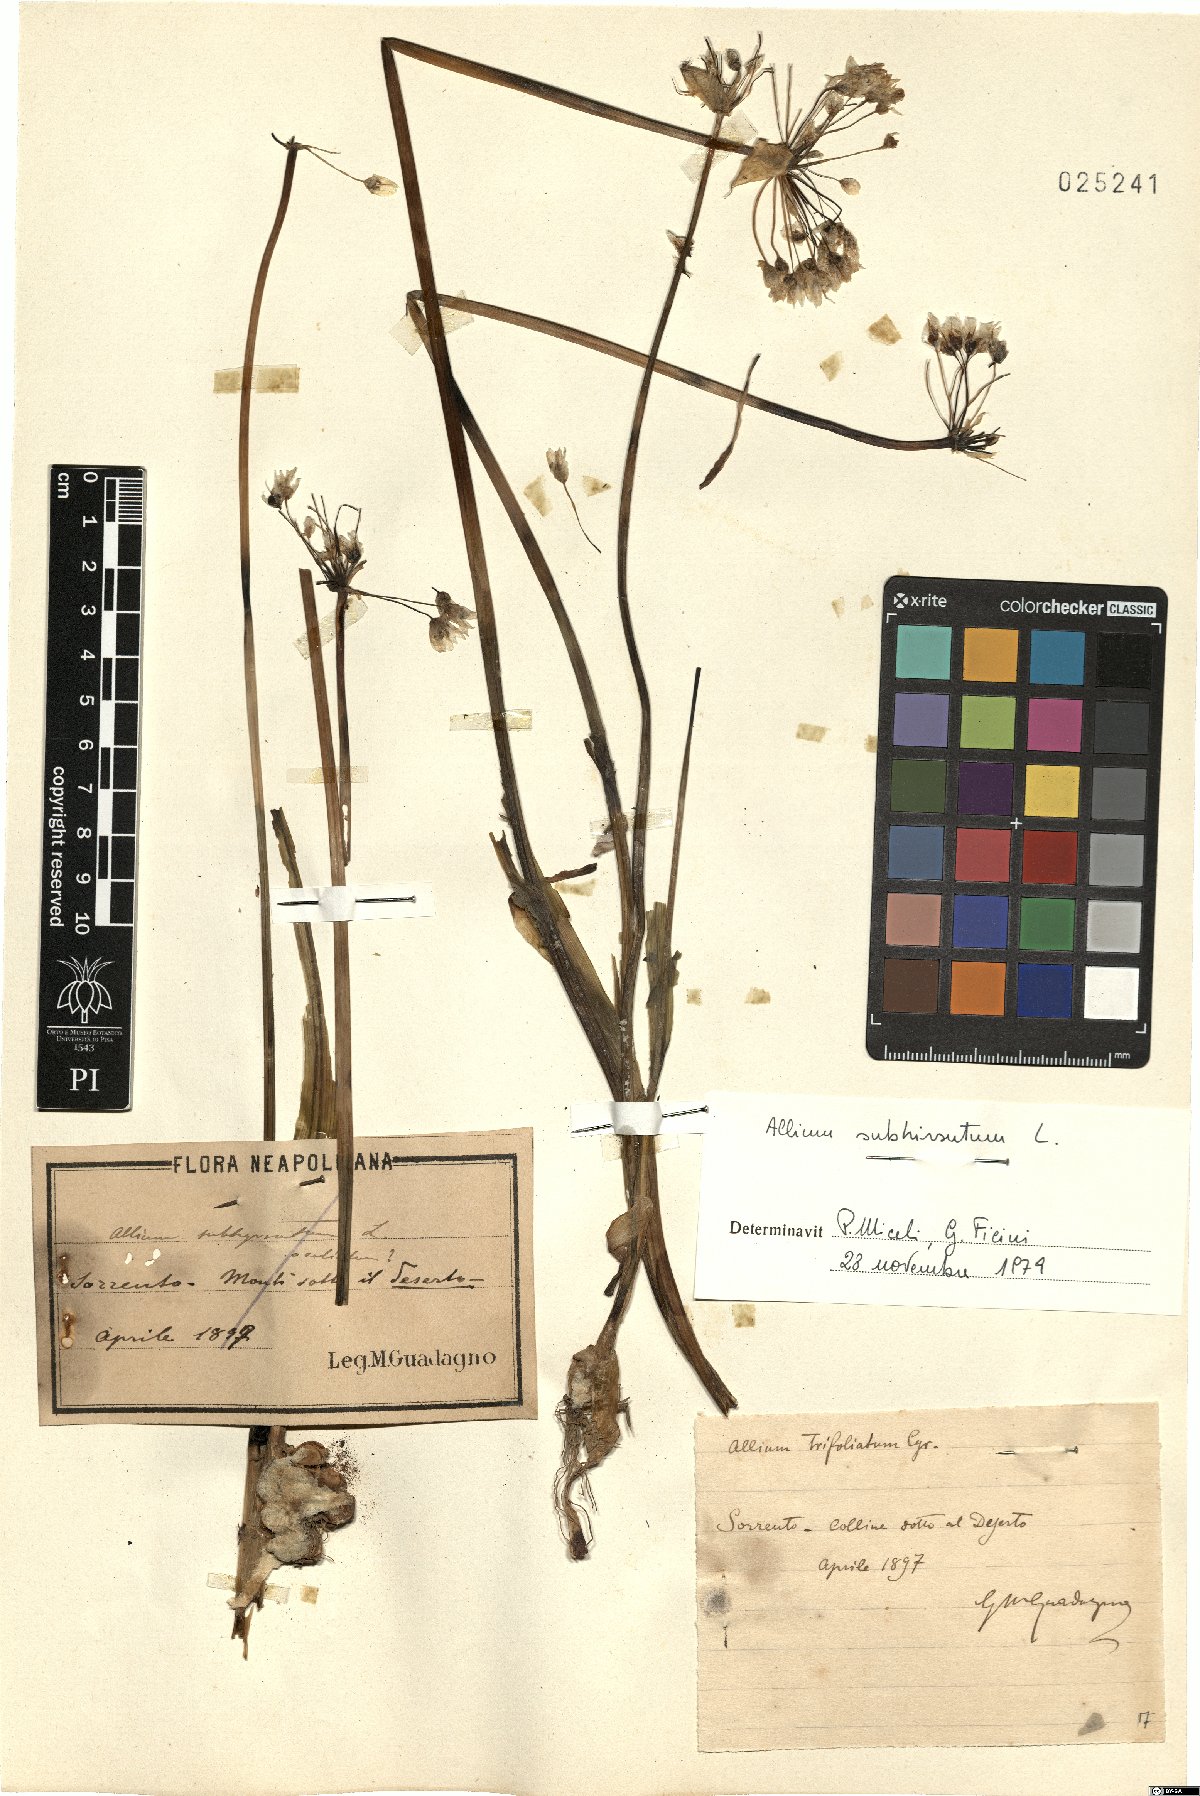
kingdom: Plantae
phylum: Tracheophyta
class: Liliopsida
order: Asparagales
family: Amaryllidaceae
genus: Allium
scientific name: Allium subhirsutum
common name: Hairy garlic
